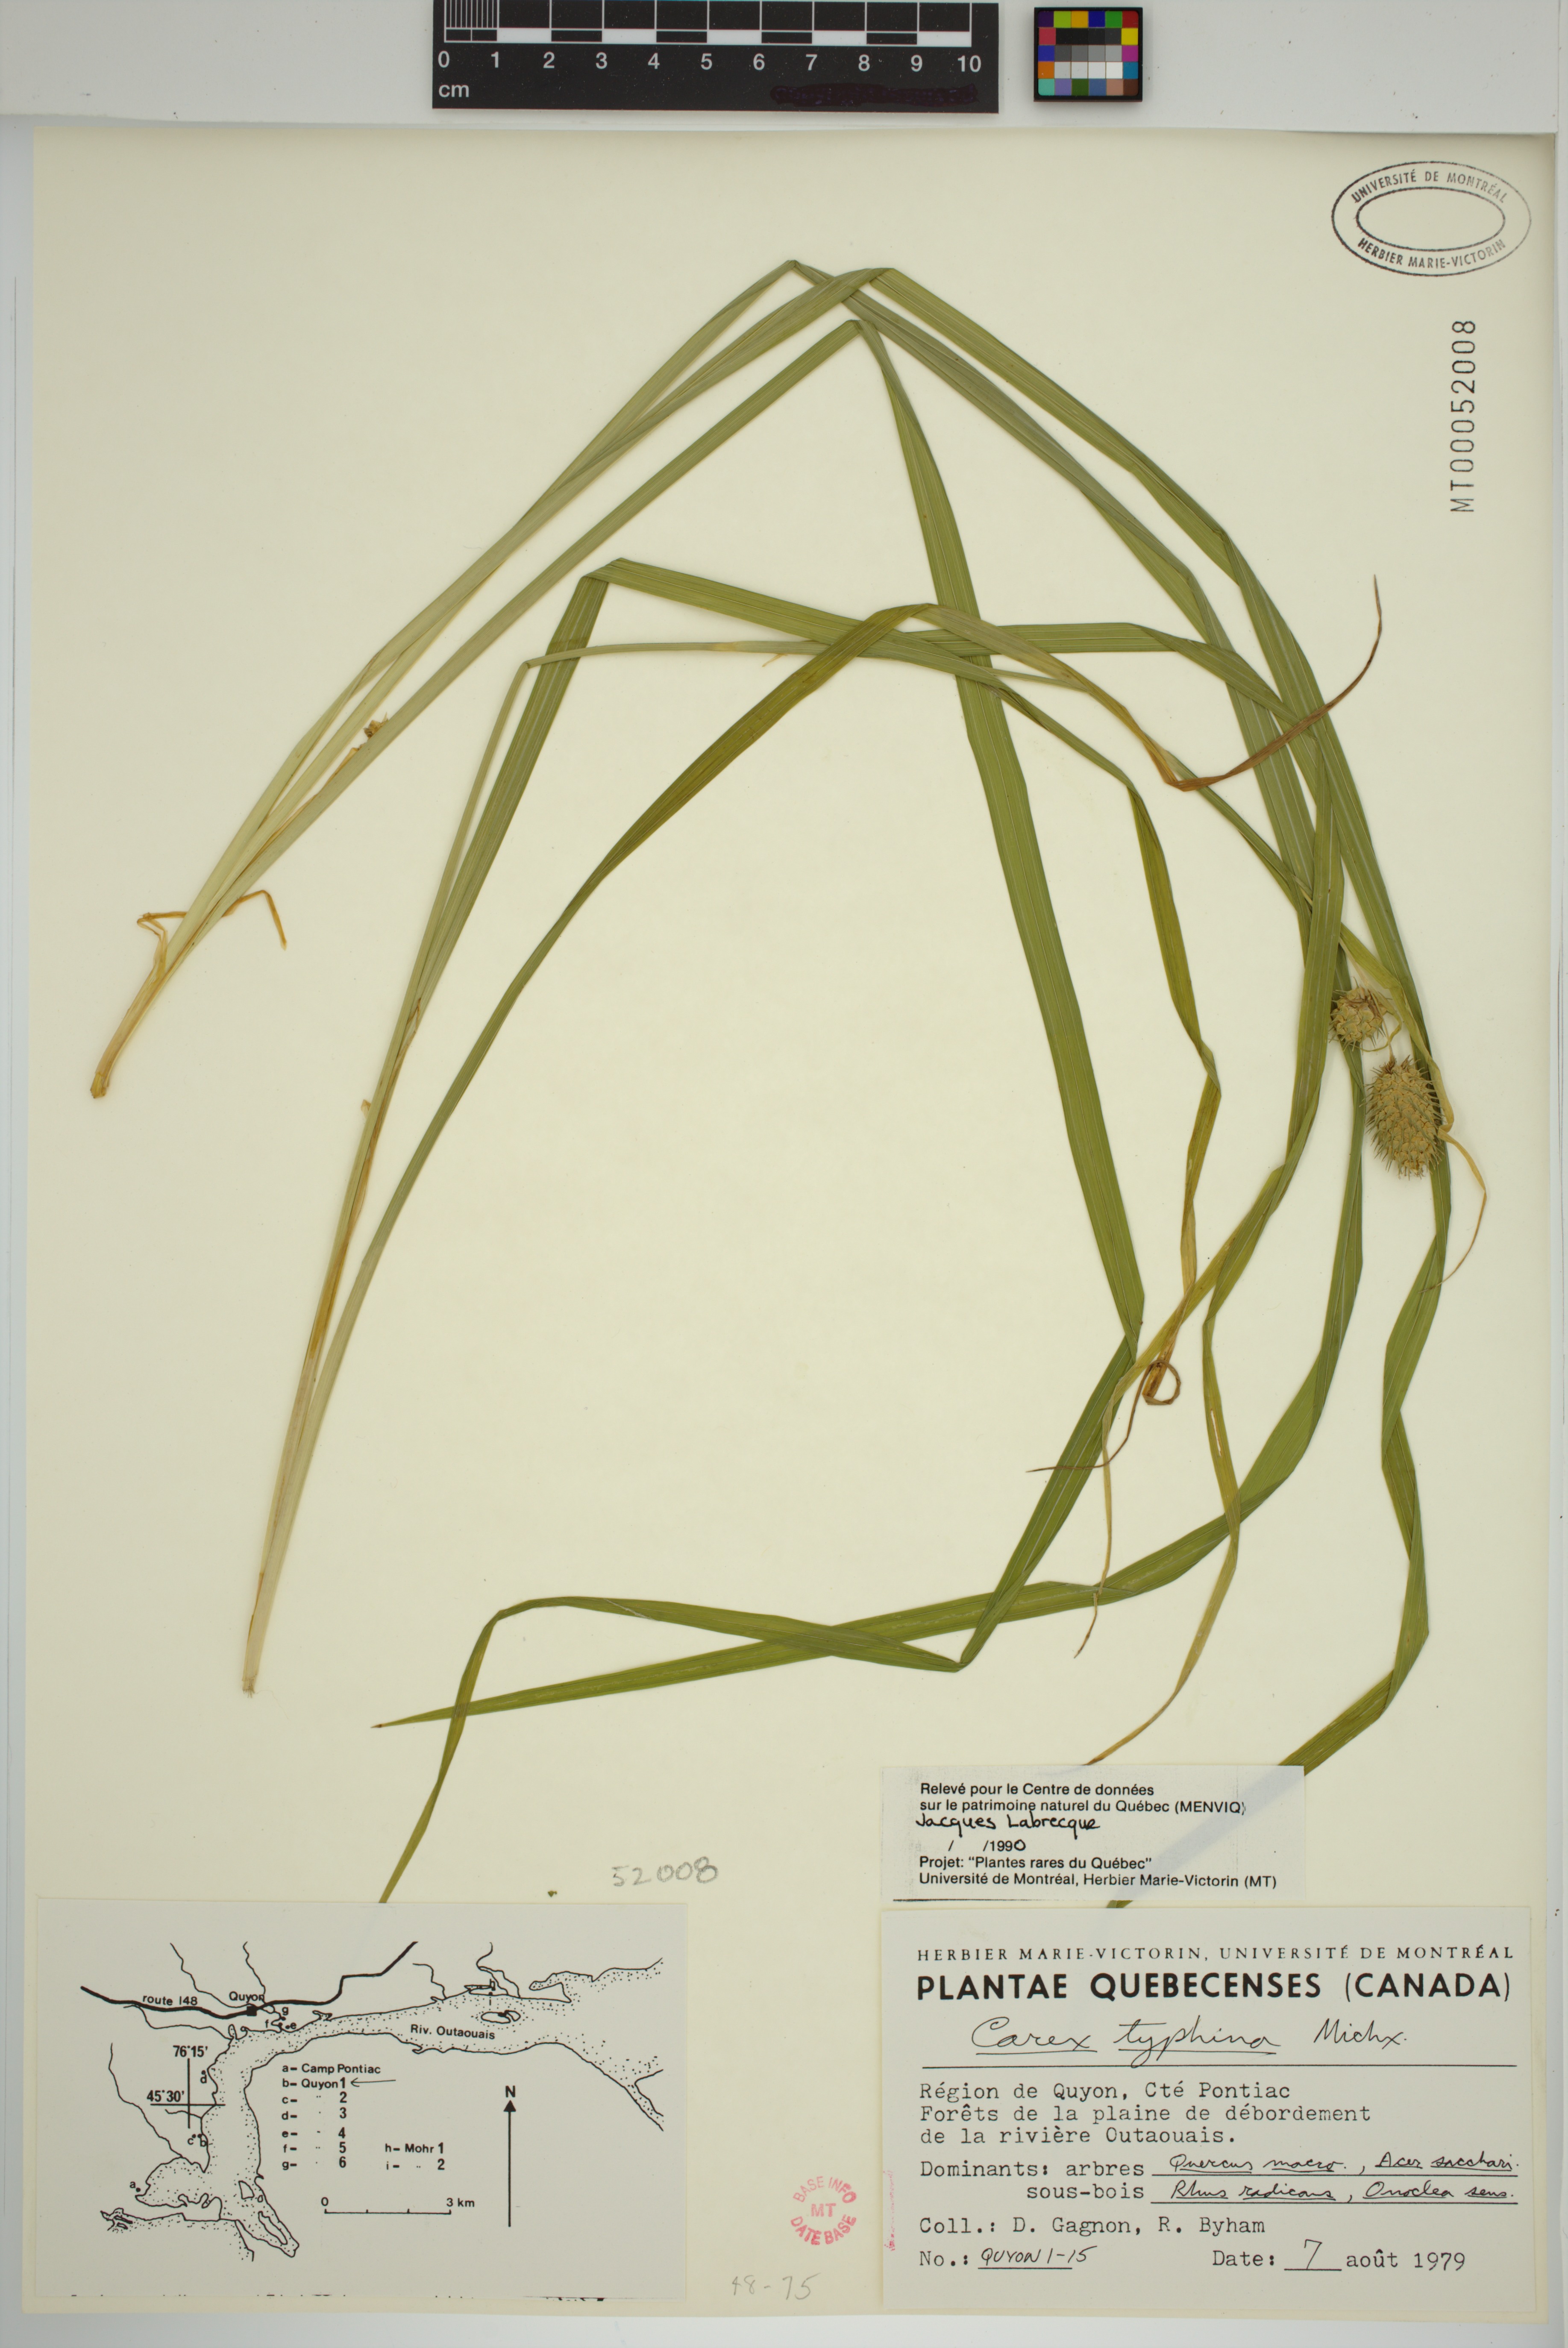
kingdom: Plantae
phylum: Tracheophyta
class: Liliopsida
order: Poales
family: Cyperaceae
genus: Carex
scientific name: Carex typhina
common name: Cattail sedge
